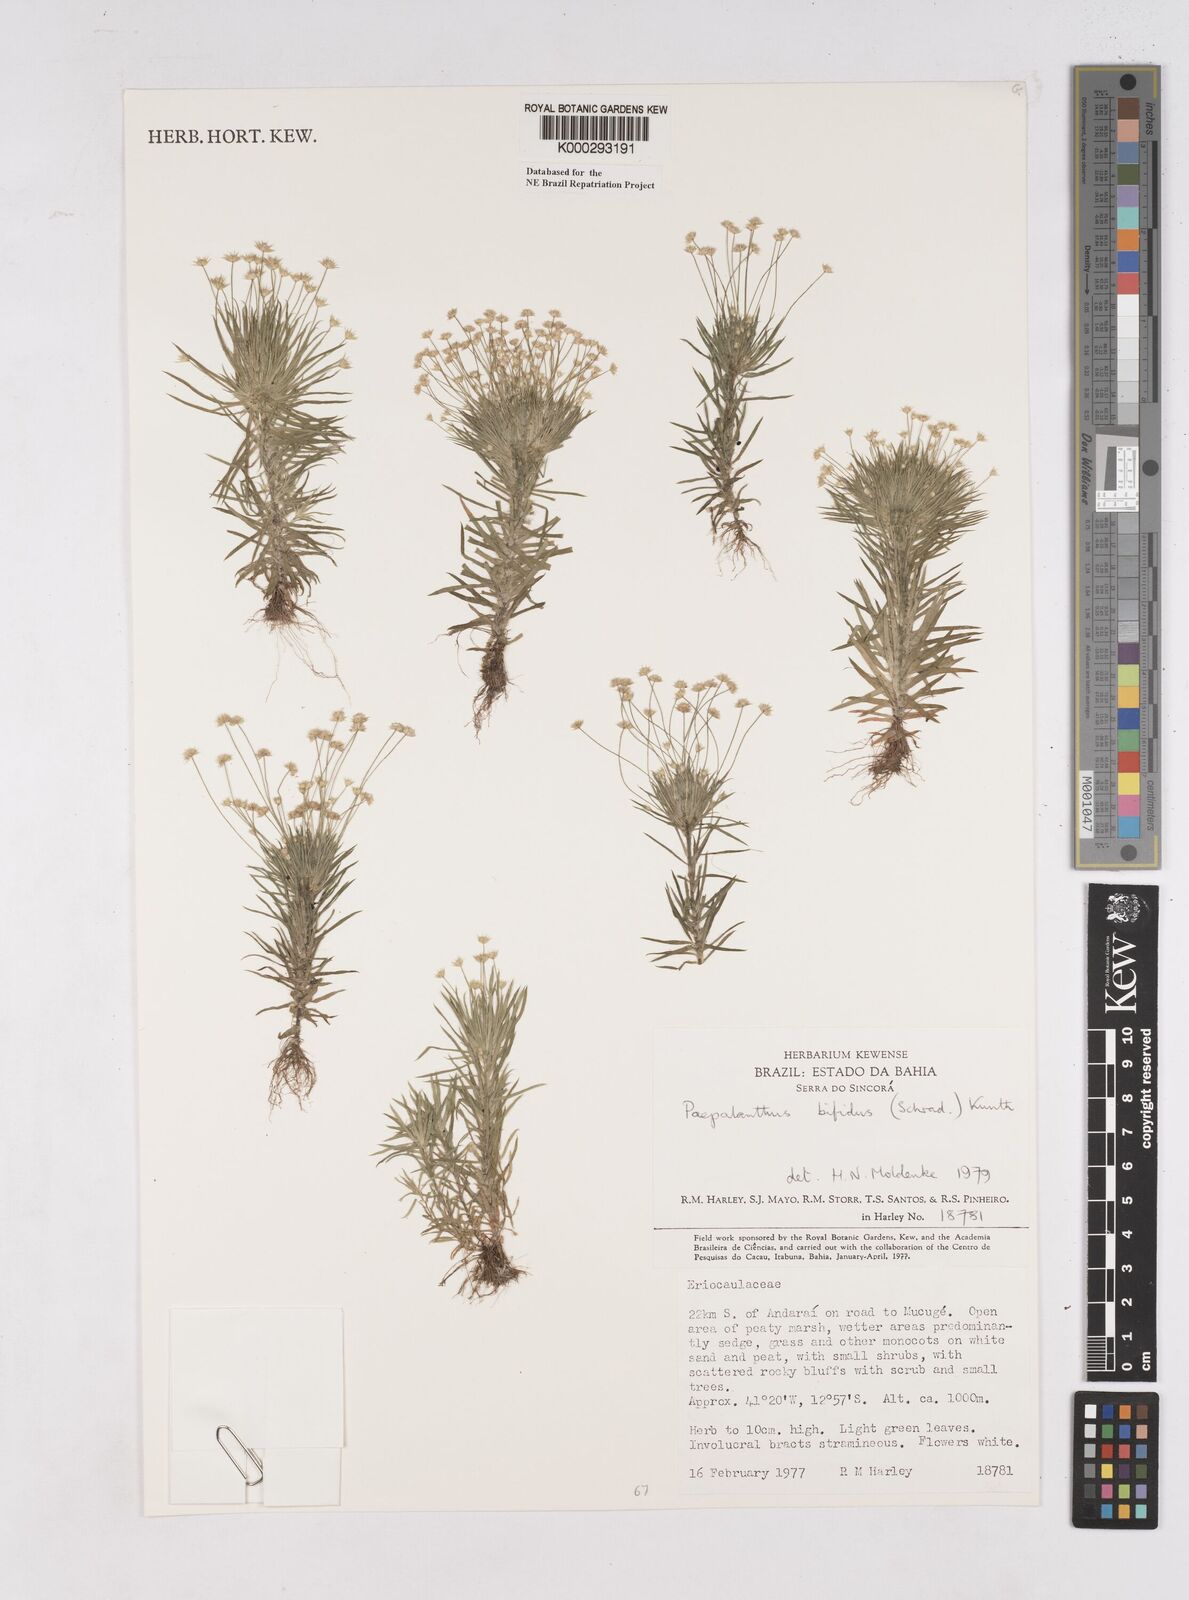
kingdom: Plantae
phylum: Tracheophyta
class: Liliopsida
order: Poales
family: Eriocaulaceae
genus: Paepalanthus
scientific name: Paepalanthus bifidus
